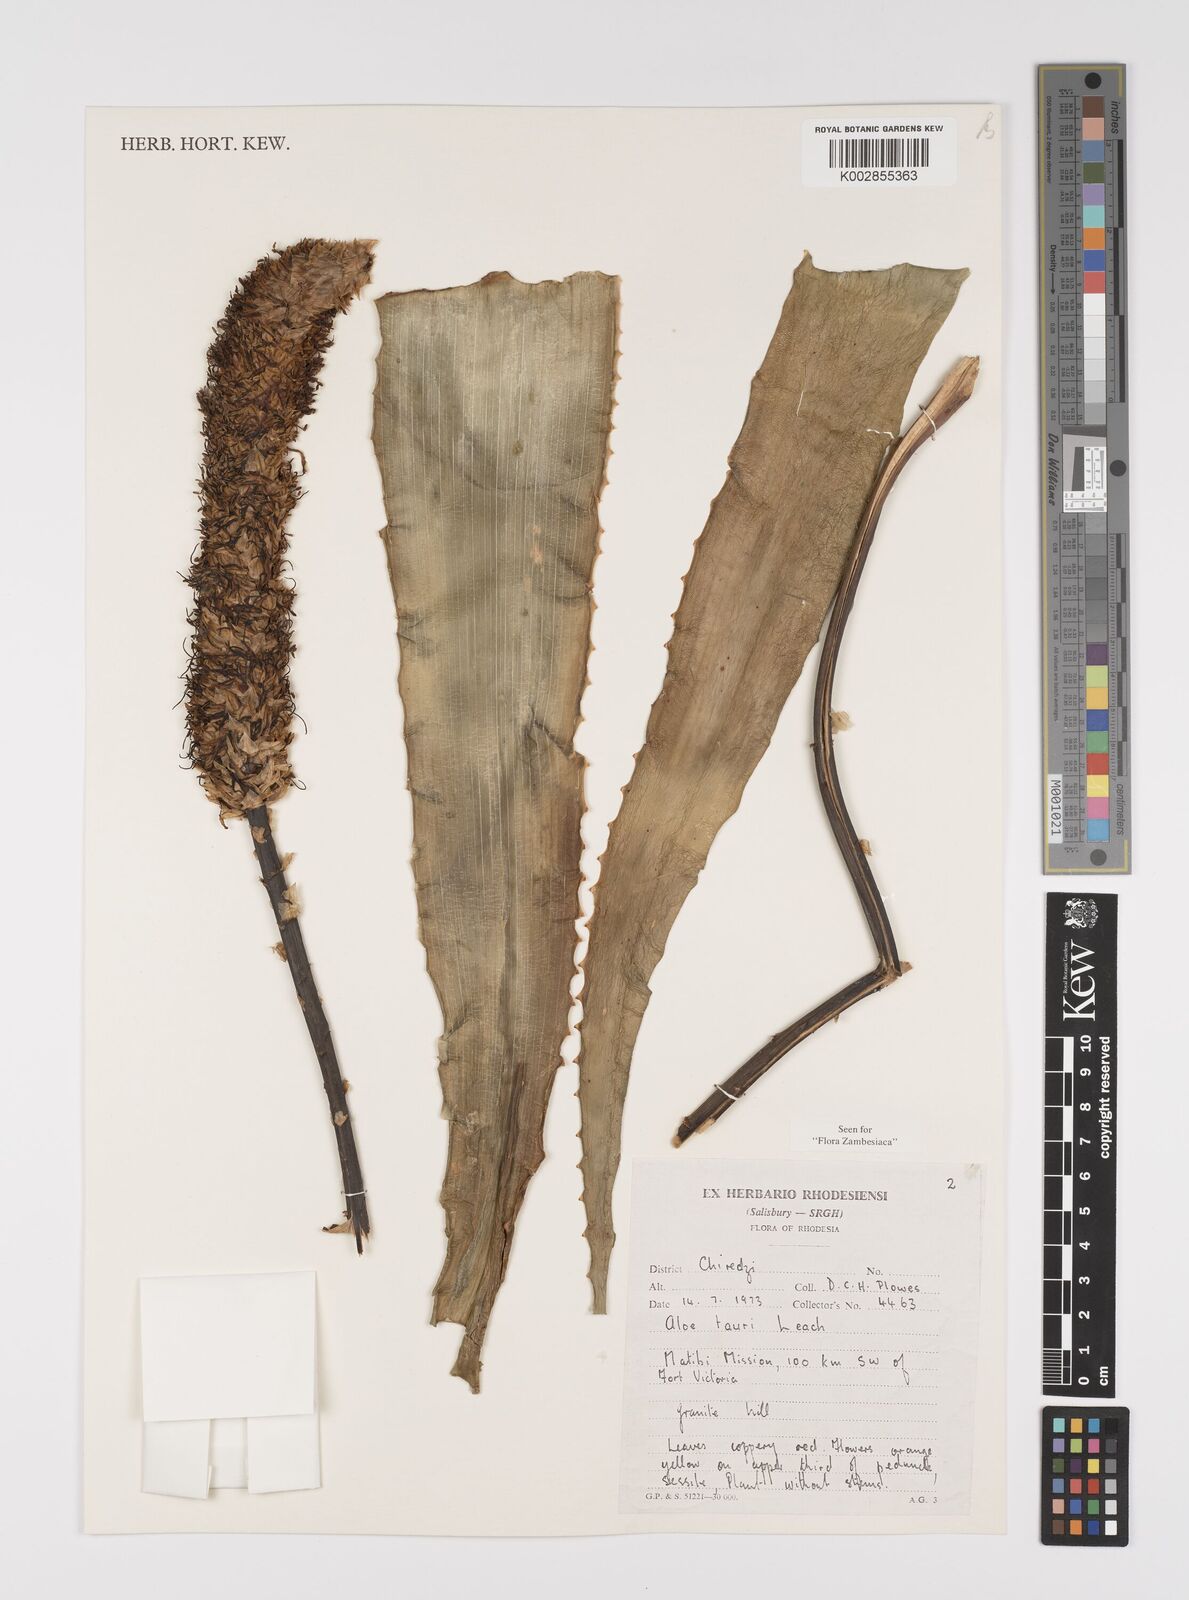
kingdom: Plantae
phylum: Tracheophyta
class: Liliopsida
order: Asparagales
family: Asphodelaceae
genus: Aloe
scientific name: Aloe tauri
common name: Bullock's bottle brush aloe
